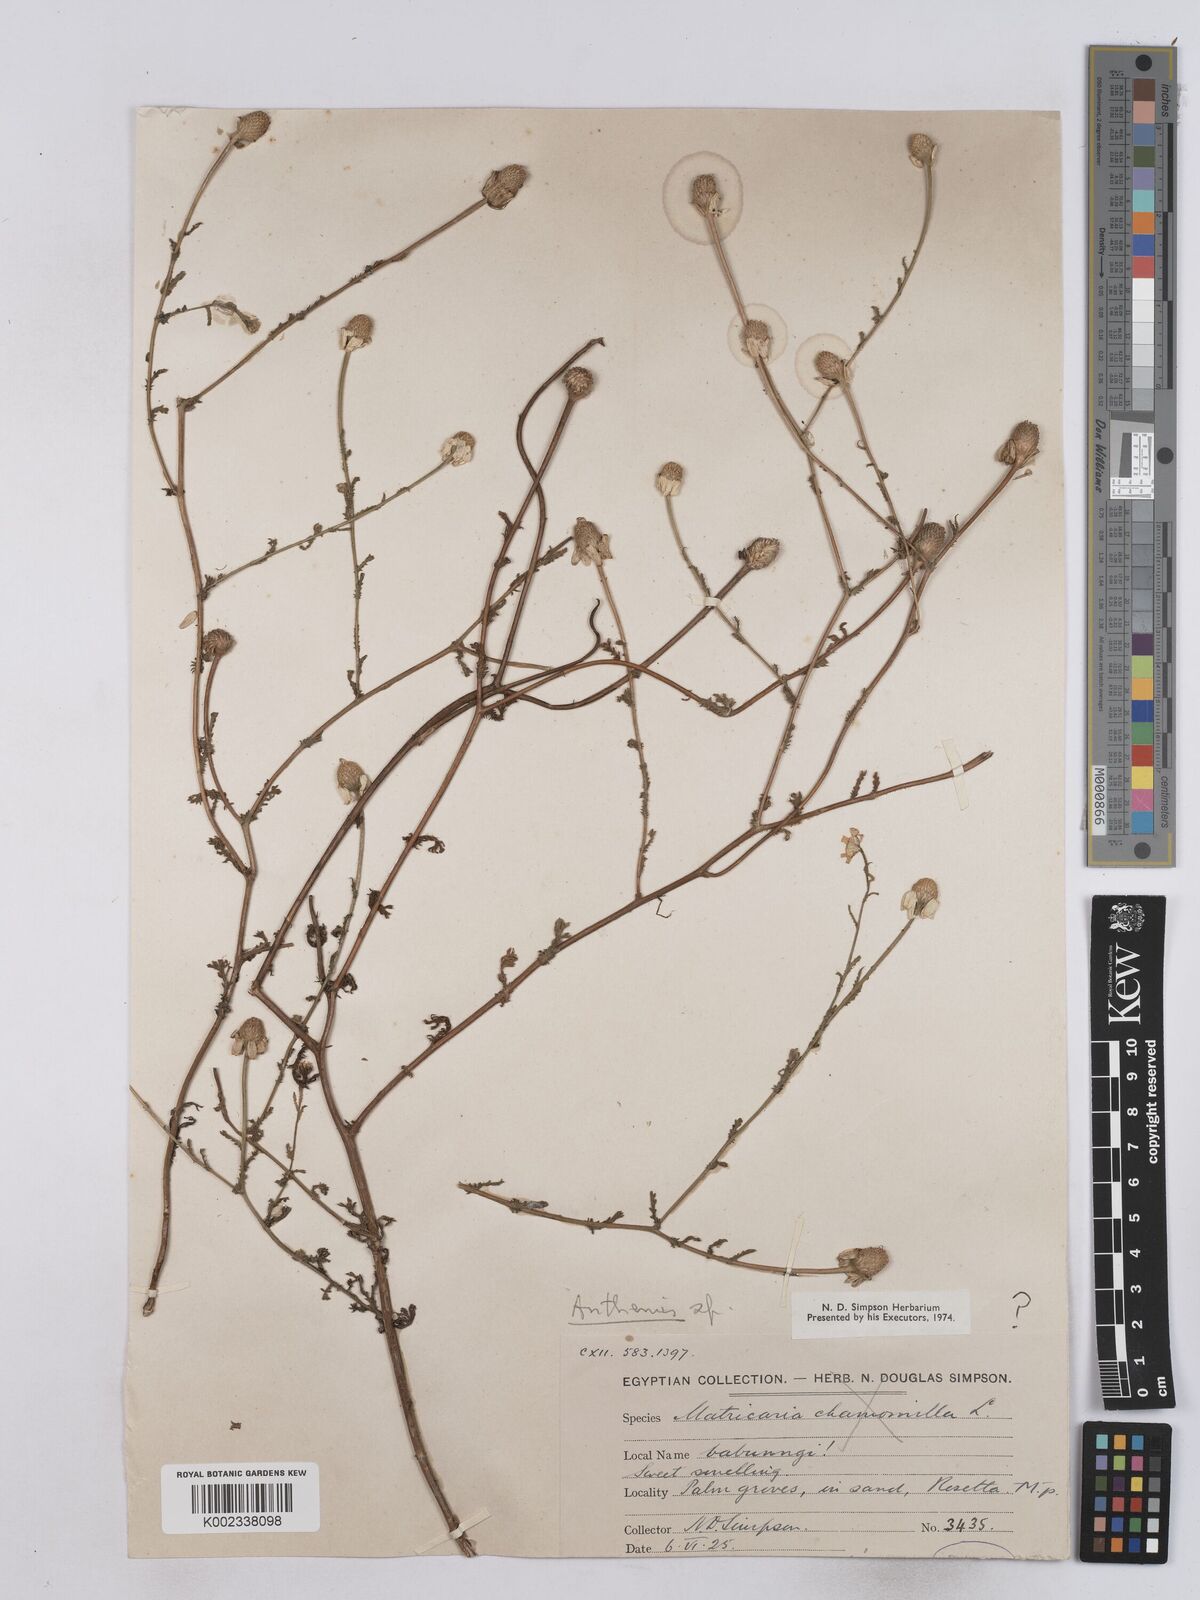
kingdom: Plantae
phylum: Tracheophyta
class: Magnoliopsida
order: Asterales
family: Asteraceae
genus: Matricaria
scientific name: Matricaria chamomilla
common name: Scented mayweed
